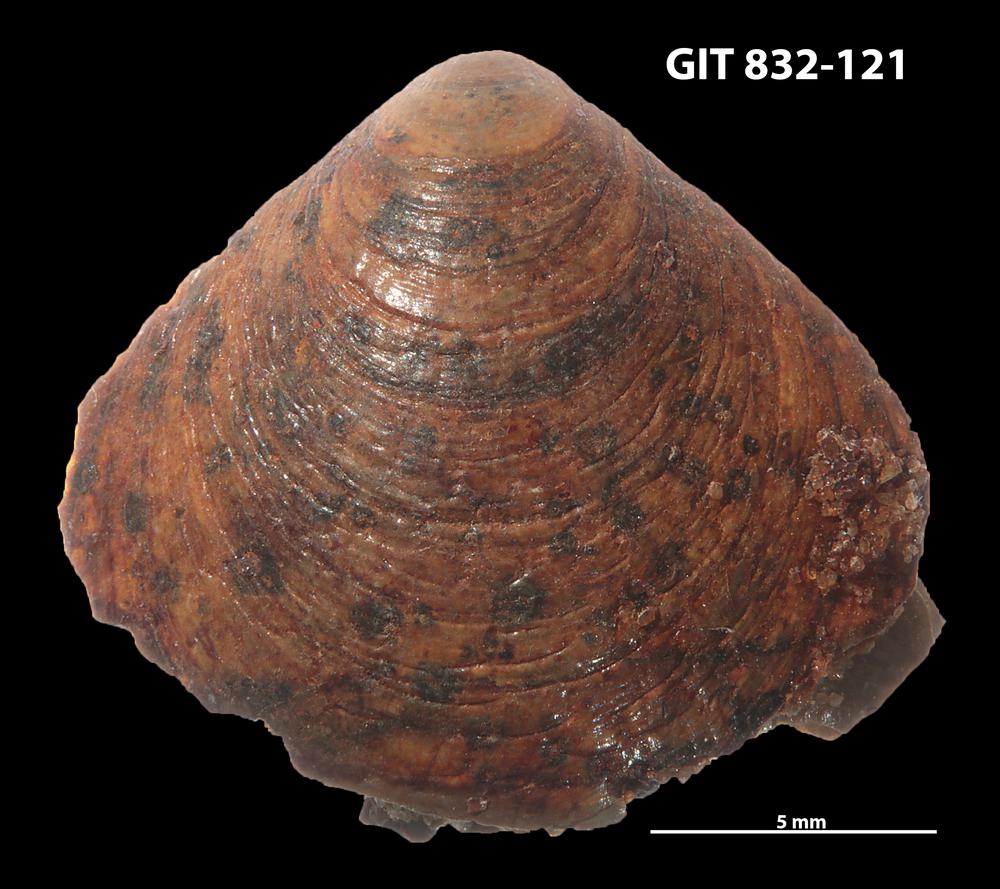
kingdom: Animalia
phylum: Brachiopoda
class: Lingulata
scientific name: Lingulata
